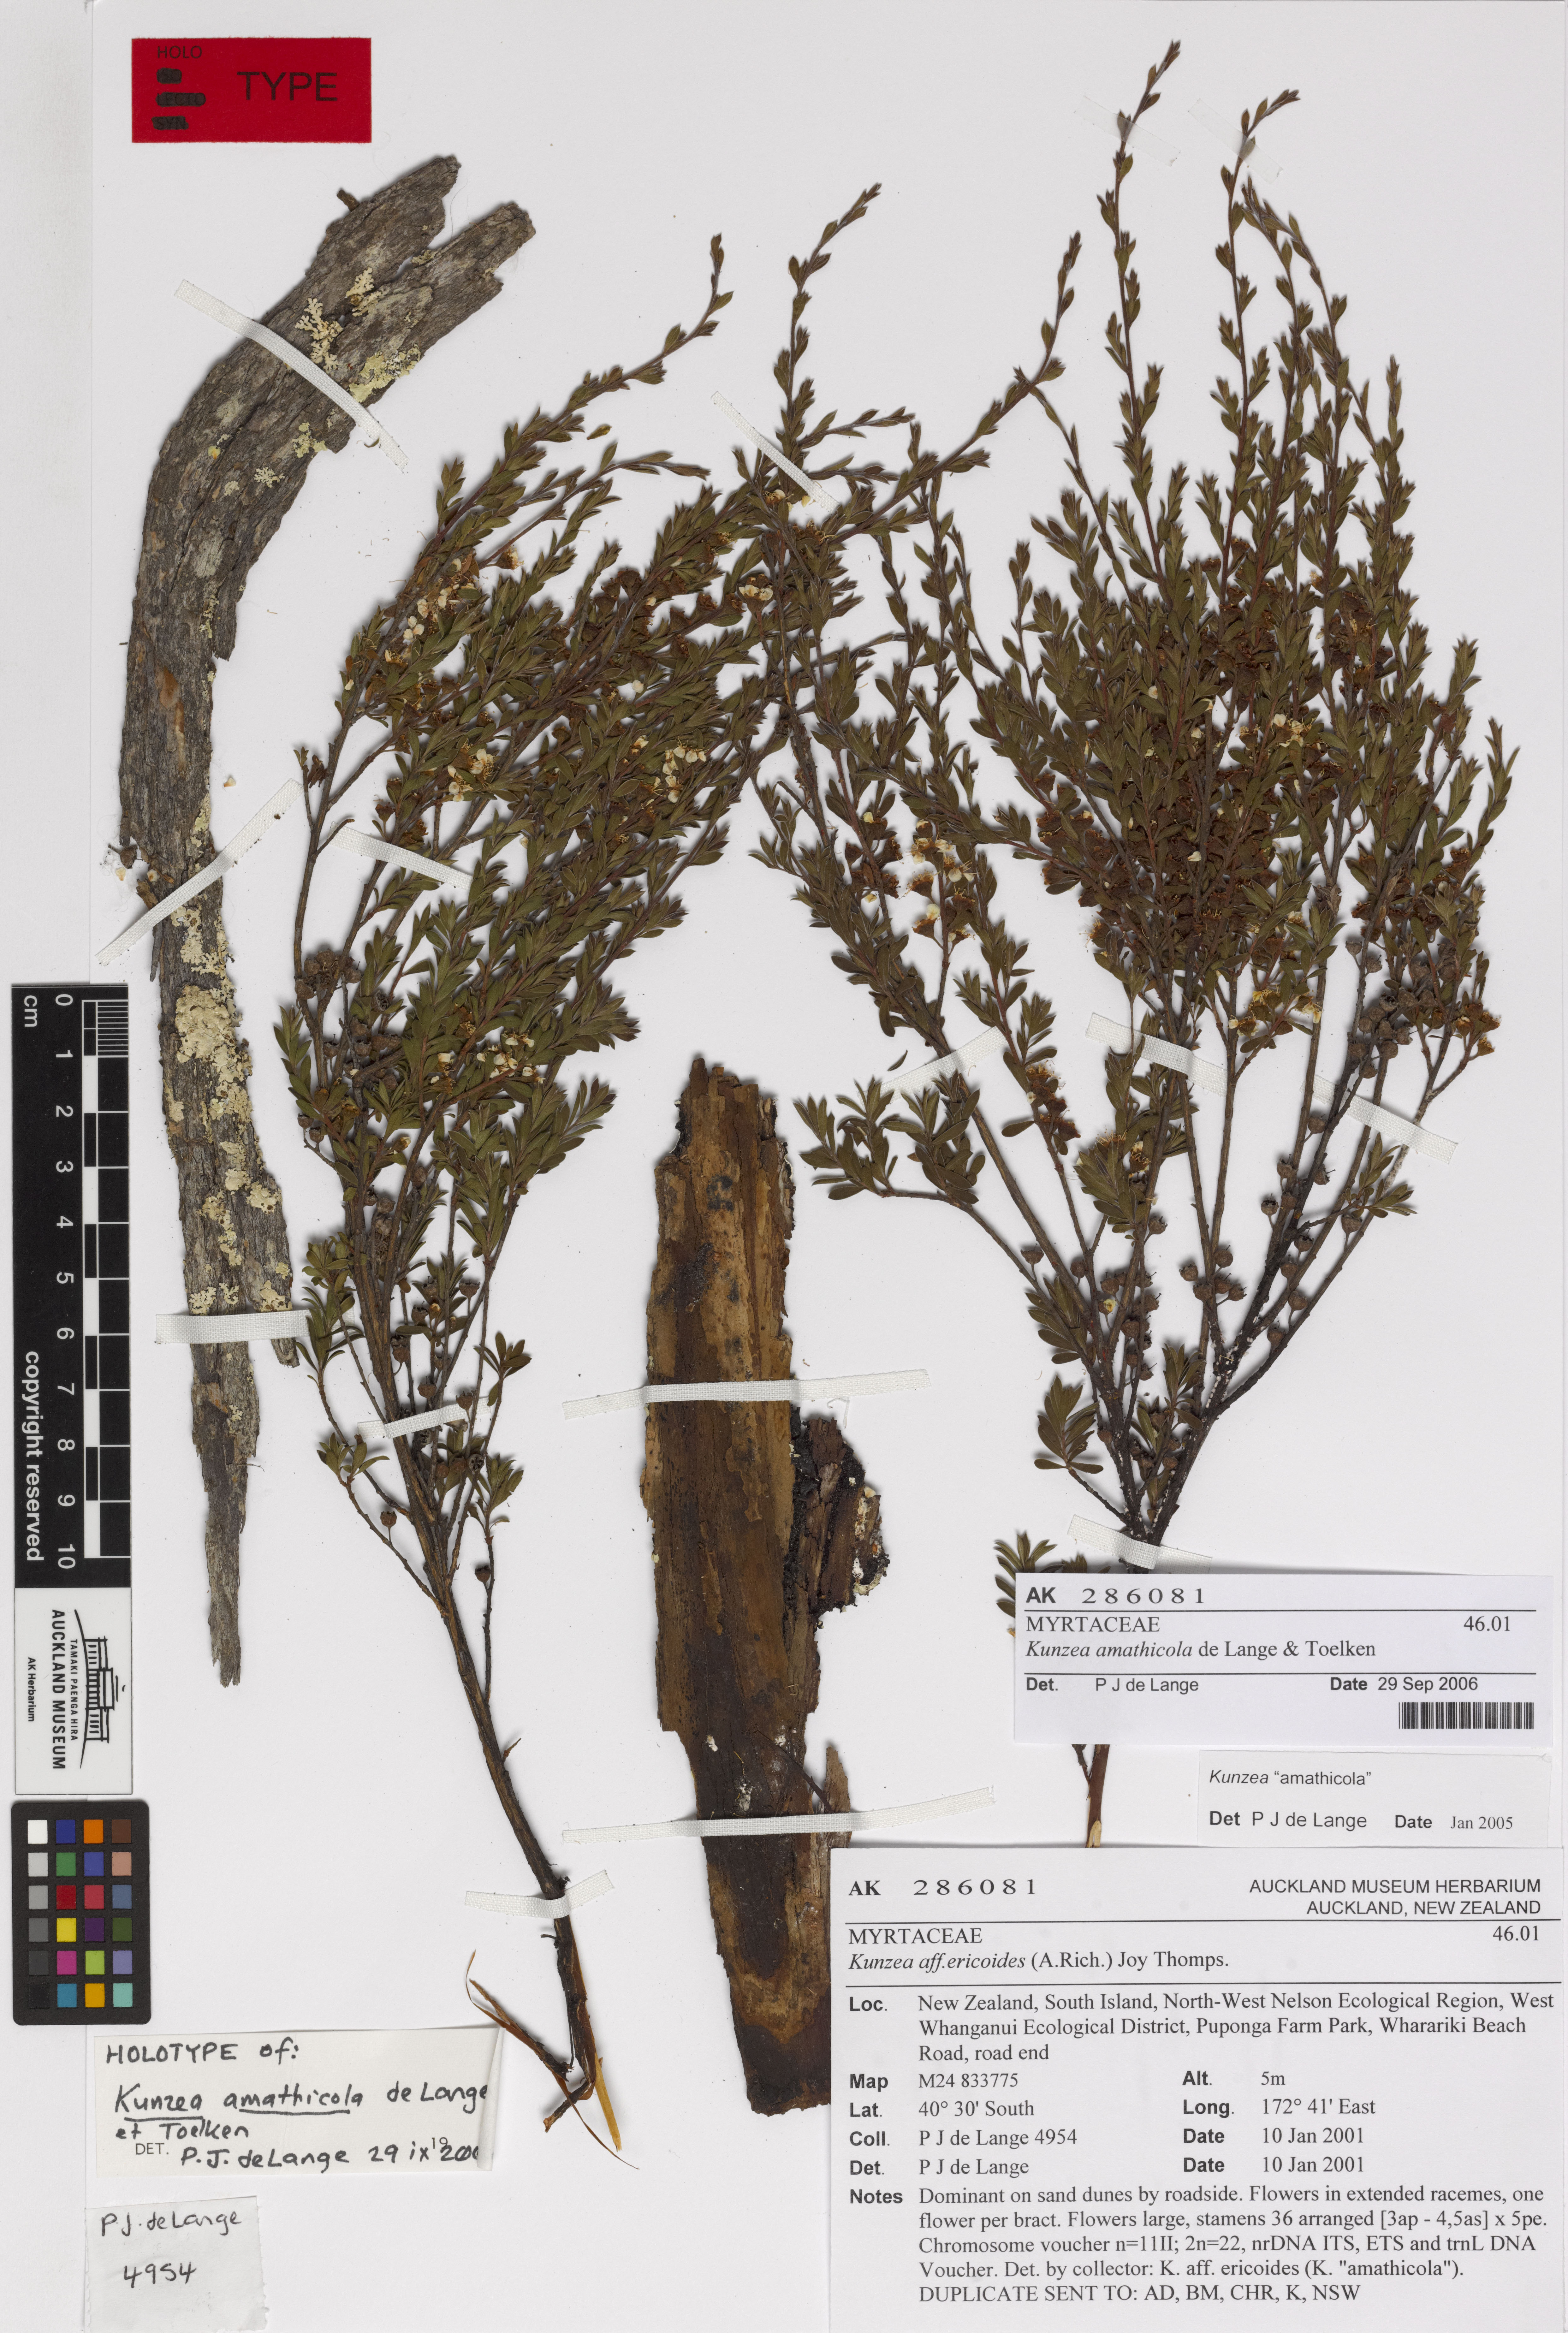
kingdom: Plantae
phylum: Tracheophyta
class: Magnoliopsida
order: Myrtales
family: Myrtaceae
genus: Kunzea
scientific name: Kunzea amathicola
